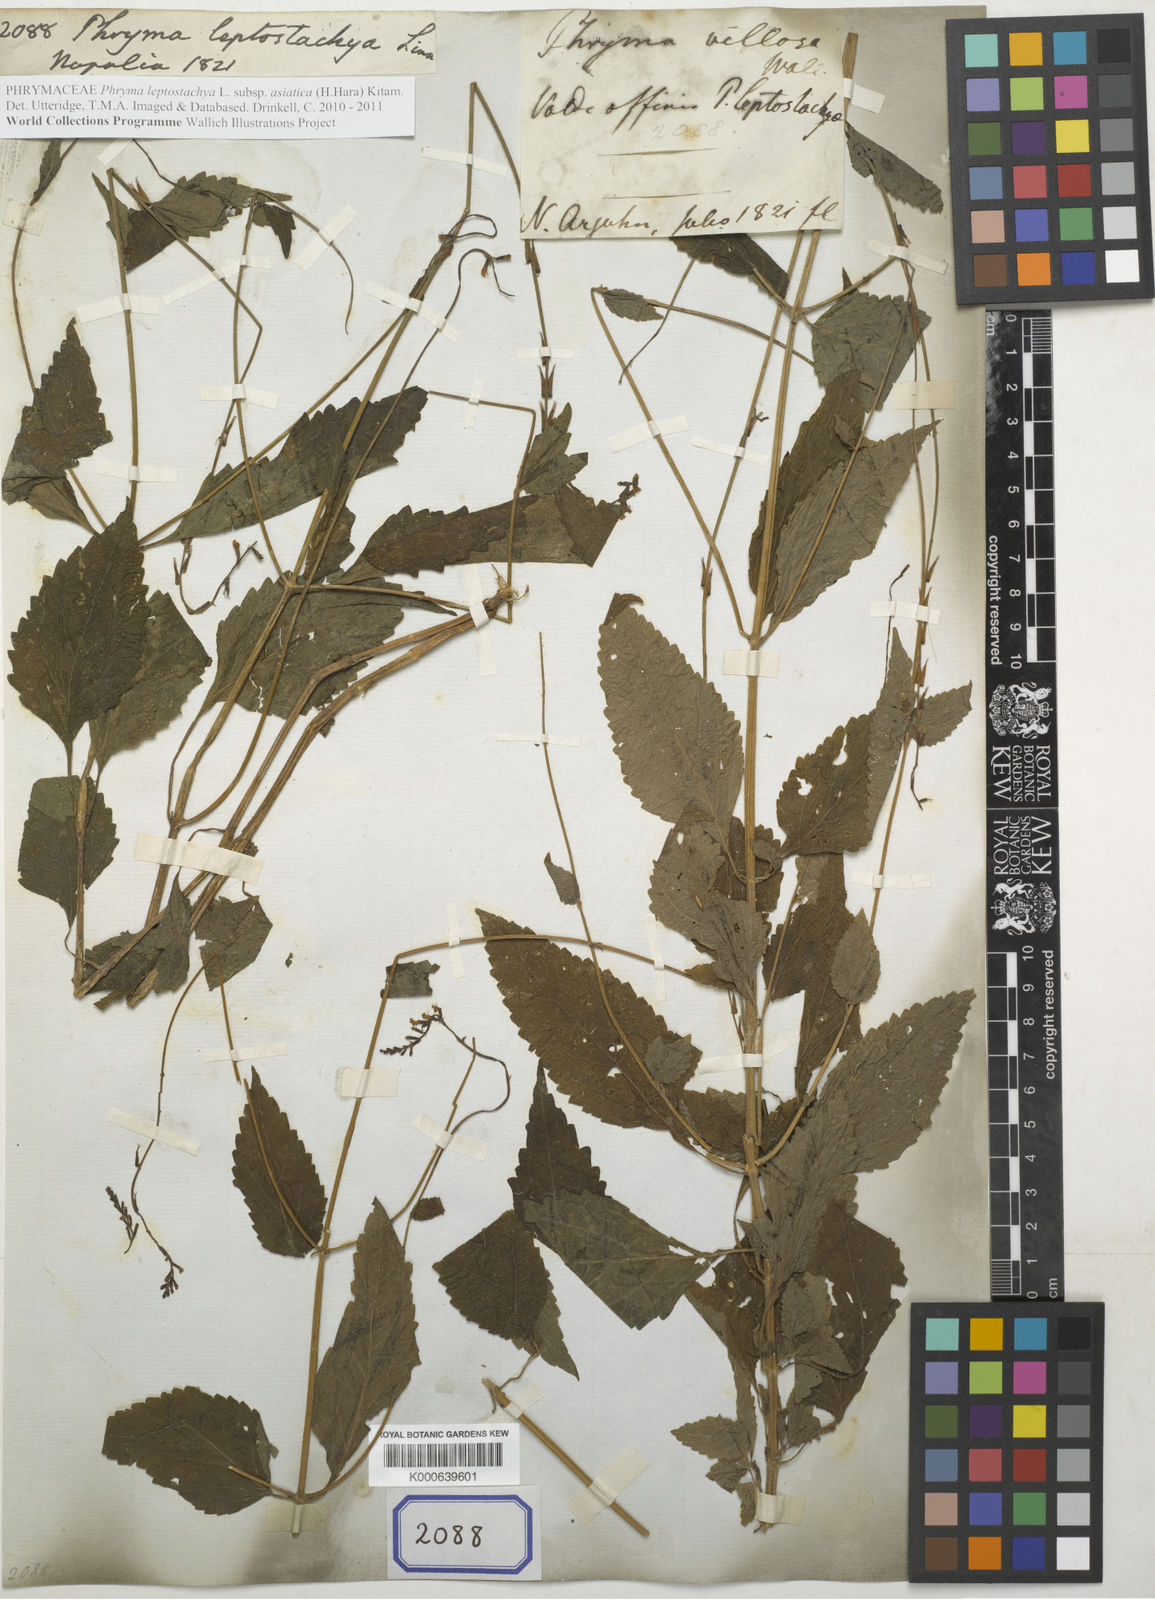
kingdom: Plantae
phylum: Tracheophyta
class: Magnoliopsida
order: Lamiales
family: Phrymaceae
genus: Phryma
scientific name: Phryma leptostachya
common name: American lopseed
